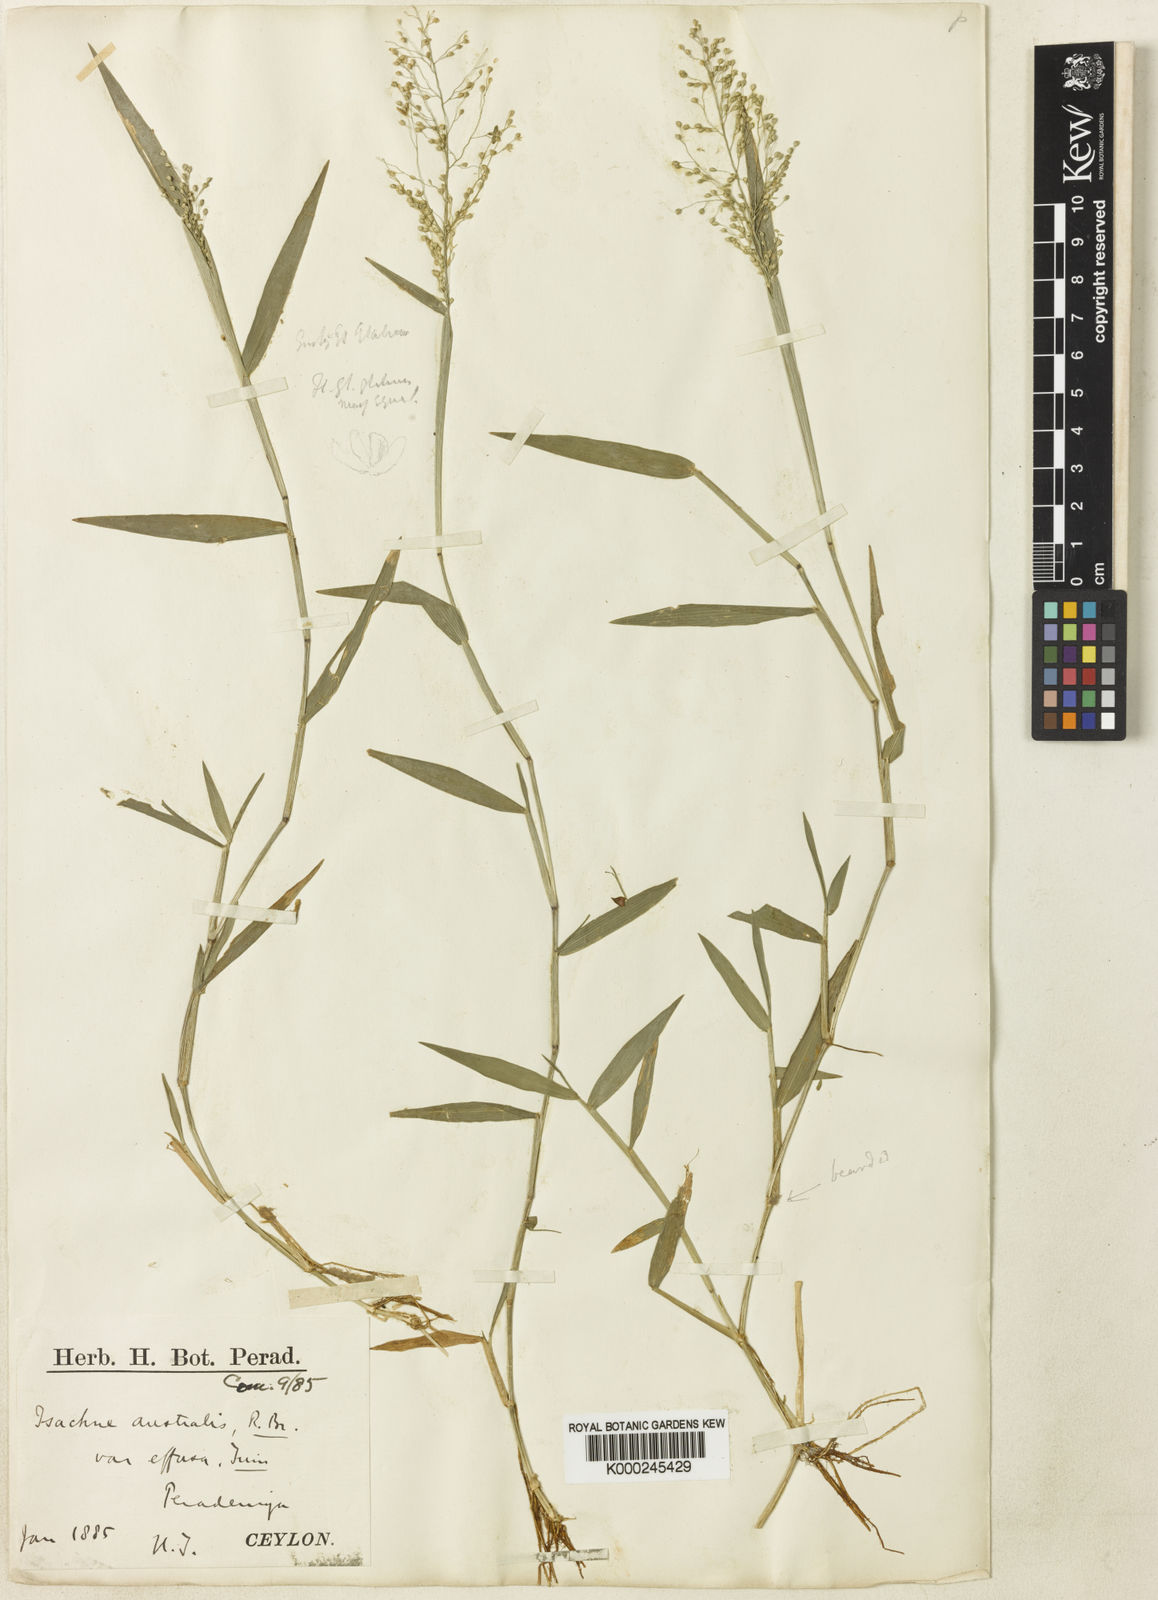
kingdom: Plantae
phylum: Tracheophyta
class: Liliopsida
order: Poales
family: Poaceae
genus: Isachne
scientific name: Isachne globosa
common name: Swamp millet
